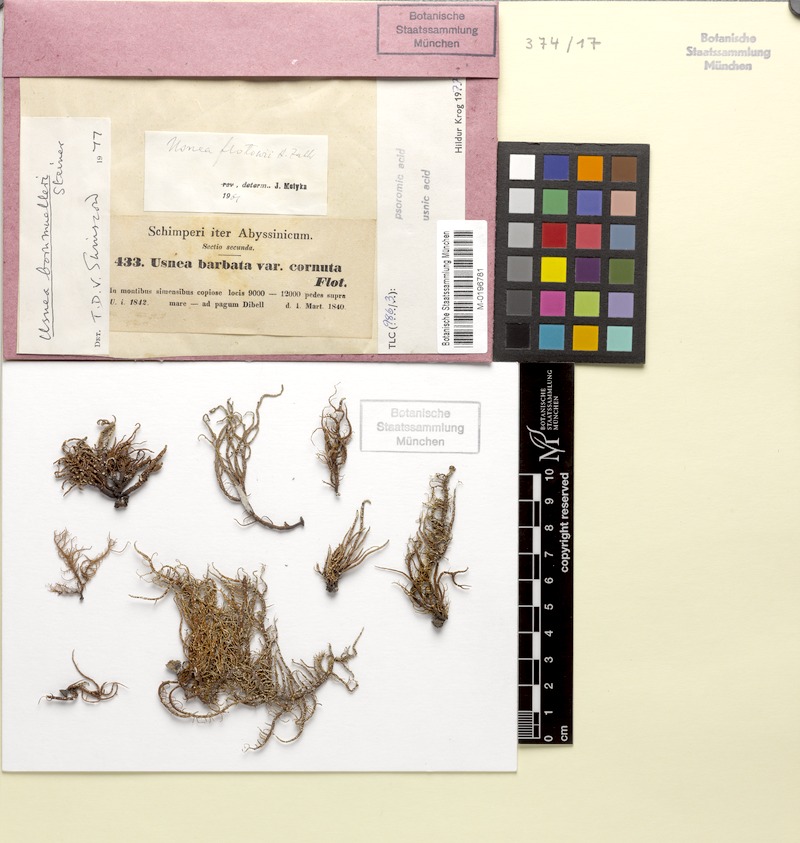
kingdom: Fungi
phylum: Ascomycota
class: Lecanoromycetes
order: Lecanorales
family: Parmeliaceae
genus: Usnea
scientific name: Usnea bornmuelleri
